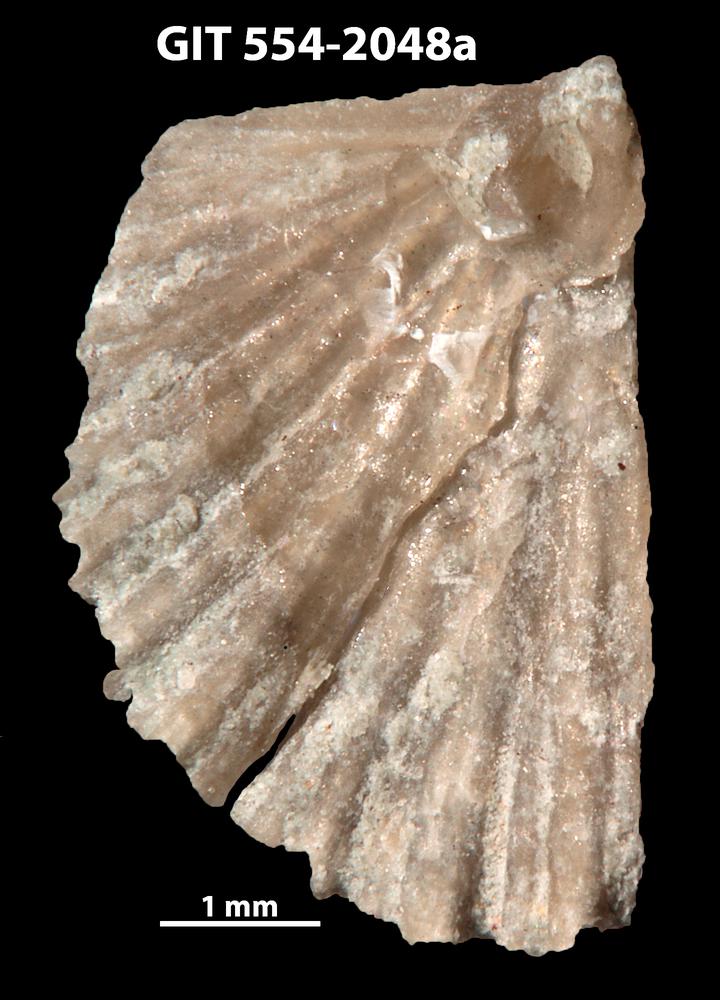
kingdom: Animalia
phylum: Brachiopoda
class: Rhynchonellata
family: Wangyuiidae
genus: Wangyuia
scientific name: Wangyuia
